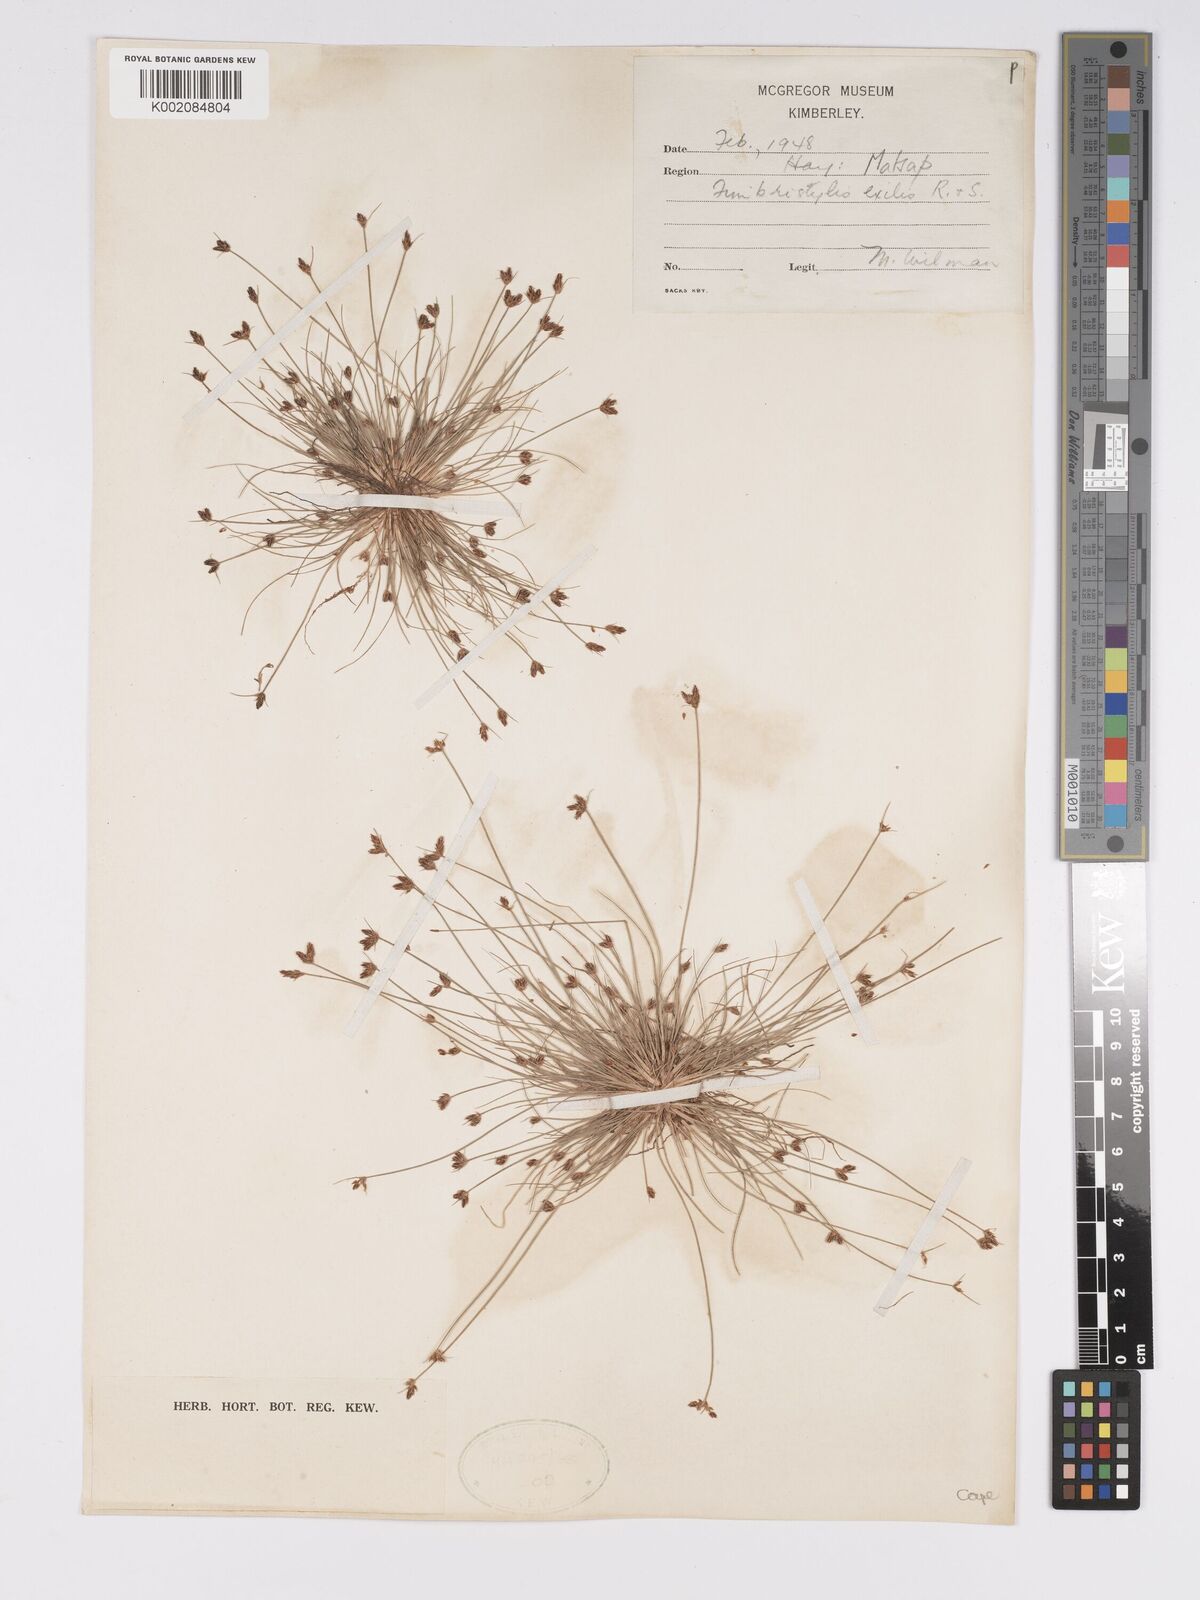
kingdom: Plantae
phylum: Tracheophyta
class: Liliopsida
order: Poales
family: Cyperaceae
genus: Bulbostylis
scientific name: Bulbostylis hispidula
